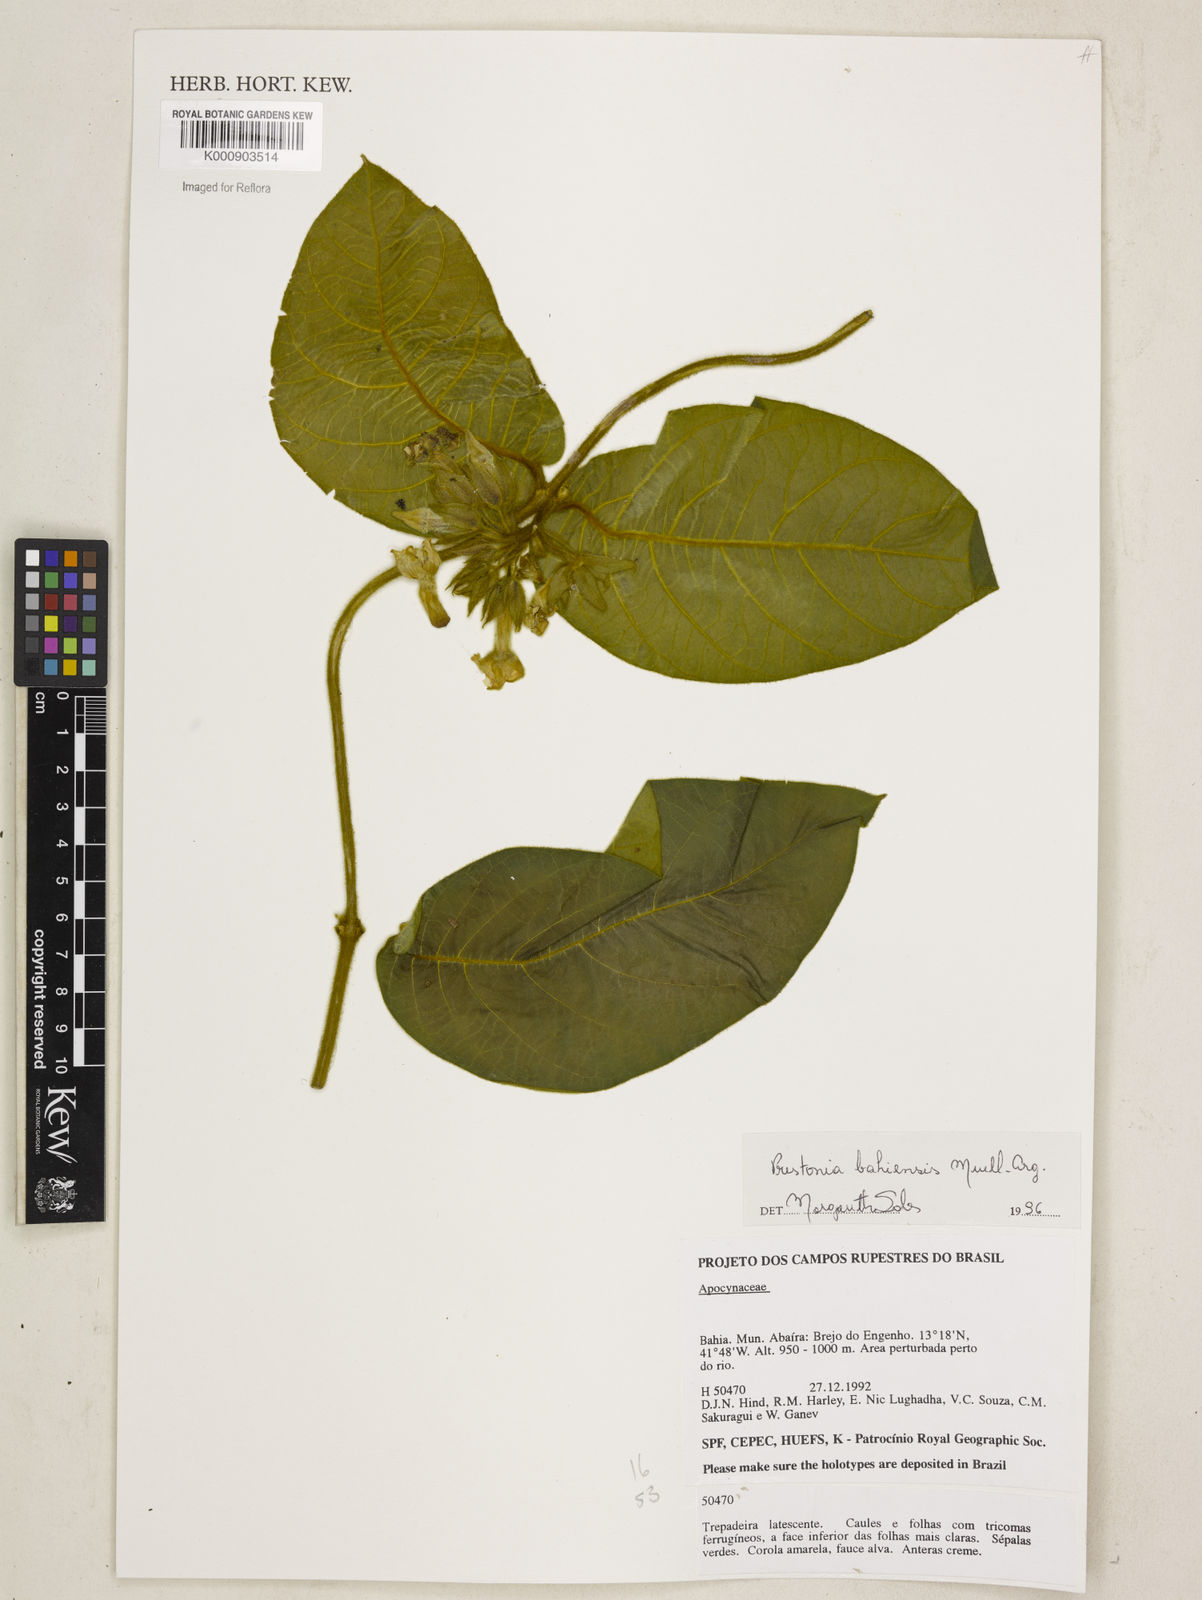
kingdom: Plantae
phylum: Tracheophyta
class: Magnoliopsida
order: Gentianales
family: Apocynaceae
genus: Prestonia
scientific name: Prestonia
